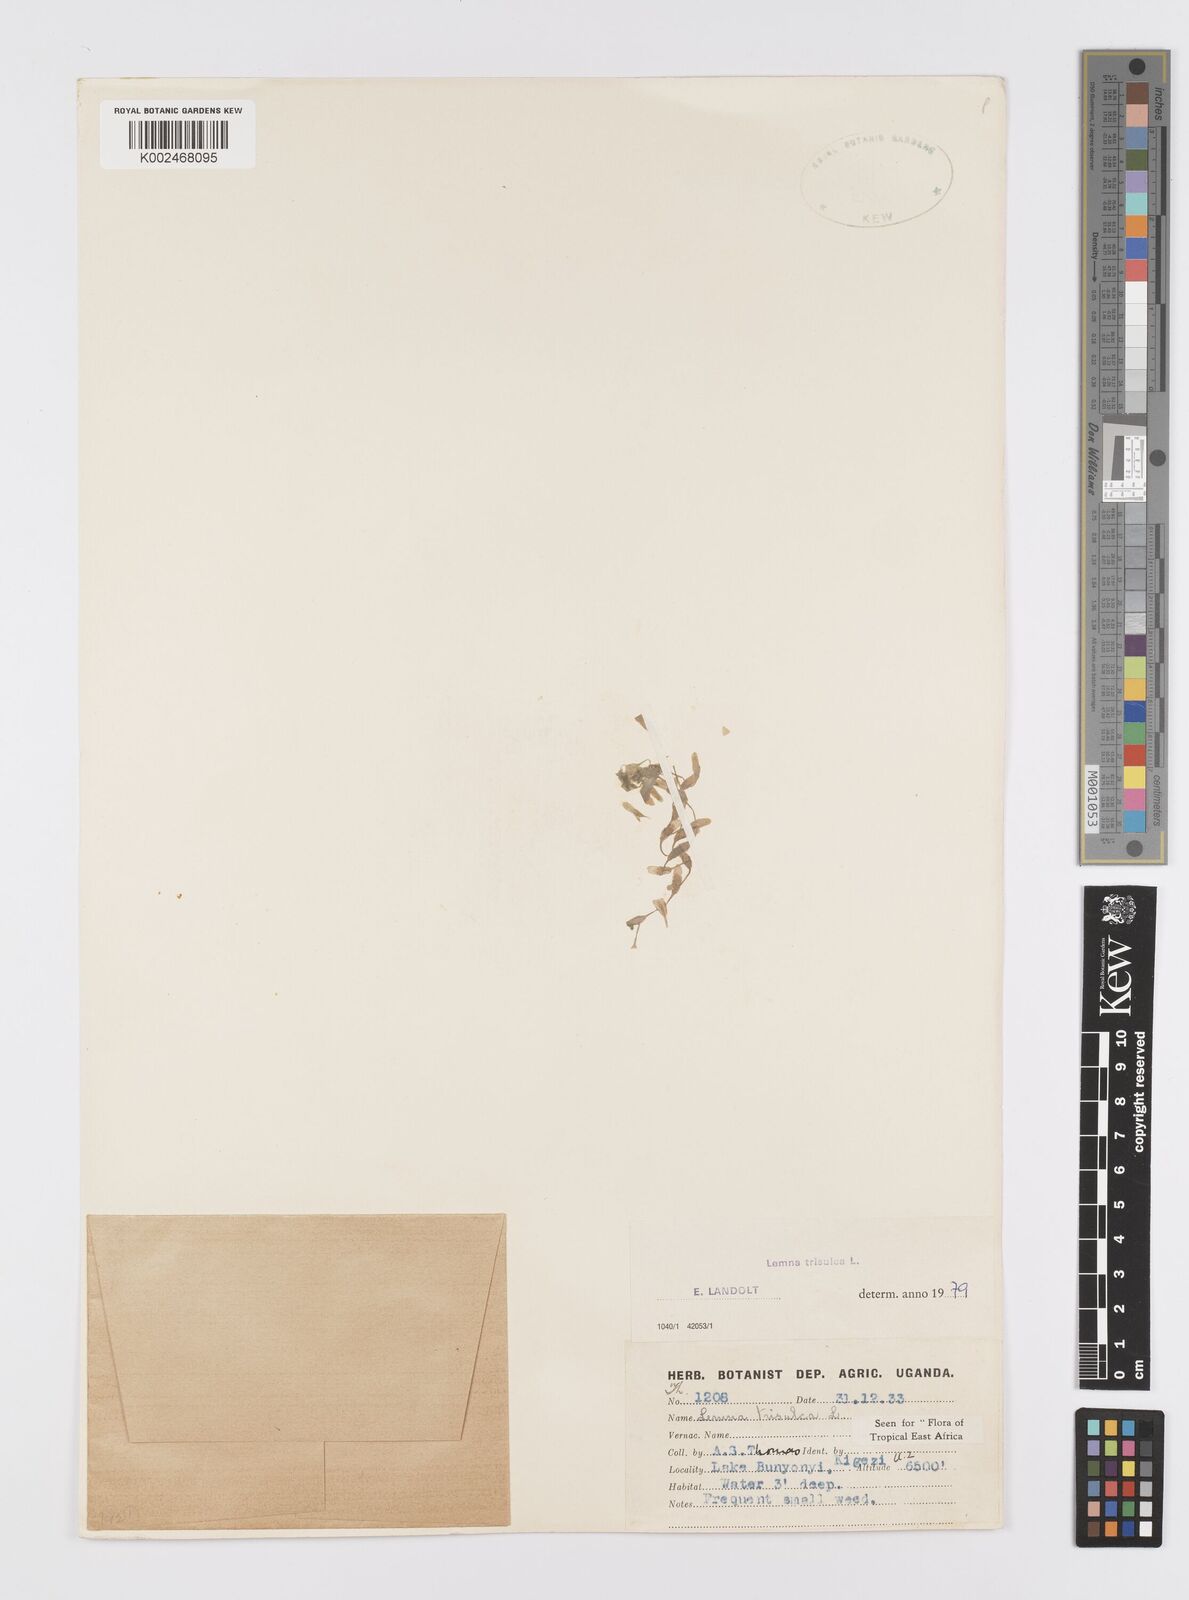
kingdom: Plantae
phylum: Tracheophyta
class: Liliopsida
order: Alismatales
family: Araceae
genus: Lemna
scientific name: Lemna trisulca
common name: Ivy-leaved duckweed
